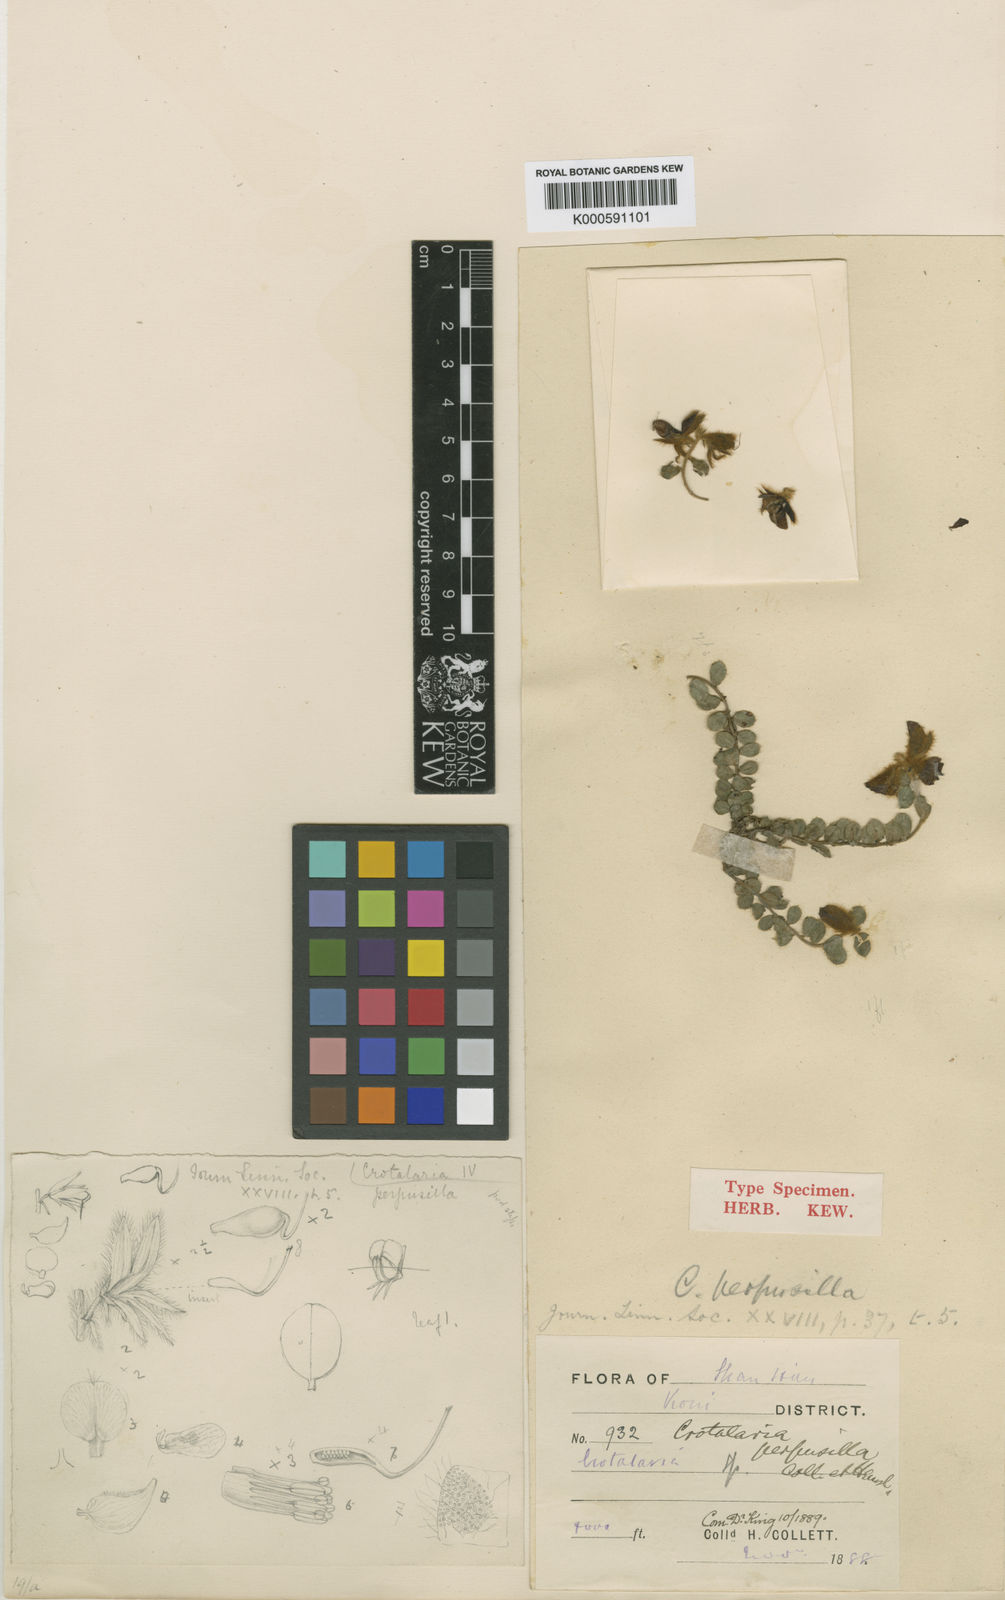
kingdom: Plantae
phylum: Tracheophyta
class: Magnoliopsida
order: Fabales
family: Fabaceae
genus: Crotalaria
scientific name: Crotalaria perpusilla
